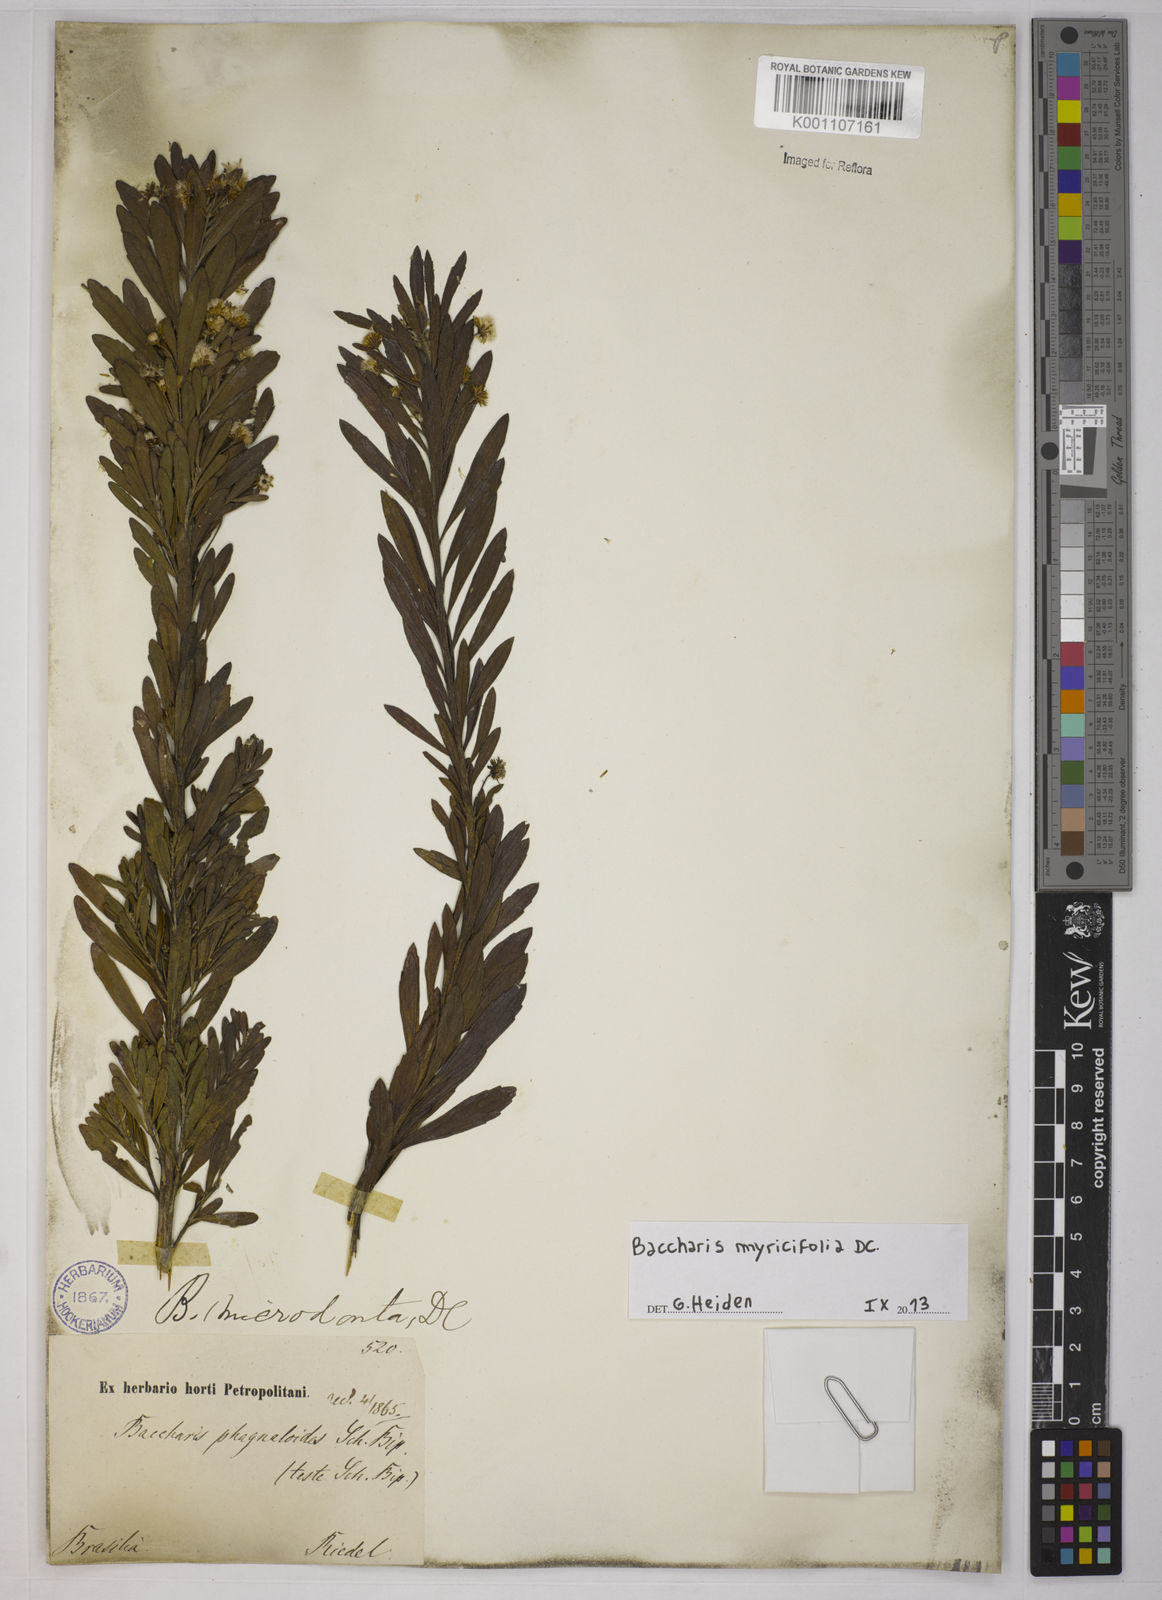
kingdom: Plantae
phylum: Tracheophyta
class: Magnoliopsida
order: Asterales
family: Asteraceae
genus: Baccharis
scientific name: Baccharis myricifolia
